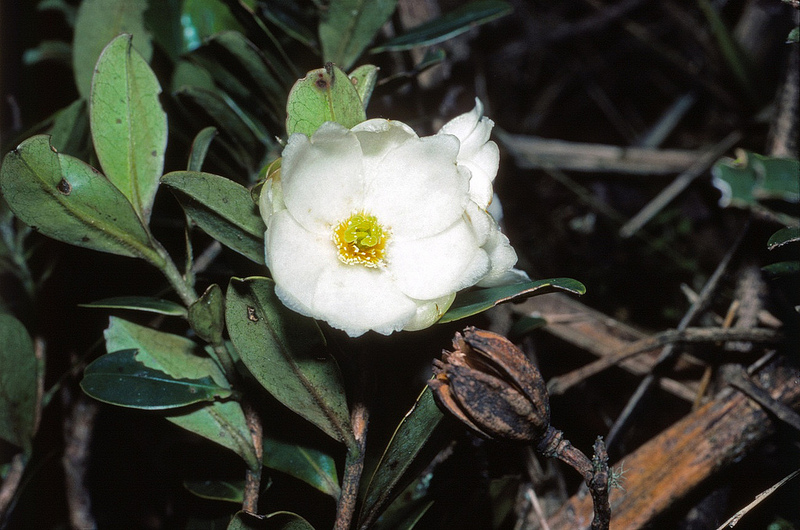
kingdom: Plantae
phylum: Tracheophyta
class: Magnoliopsida
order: Ericales
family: Pentaphylacaceae
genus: Freziera
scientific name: Freziera karsteniana
